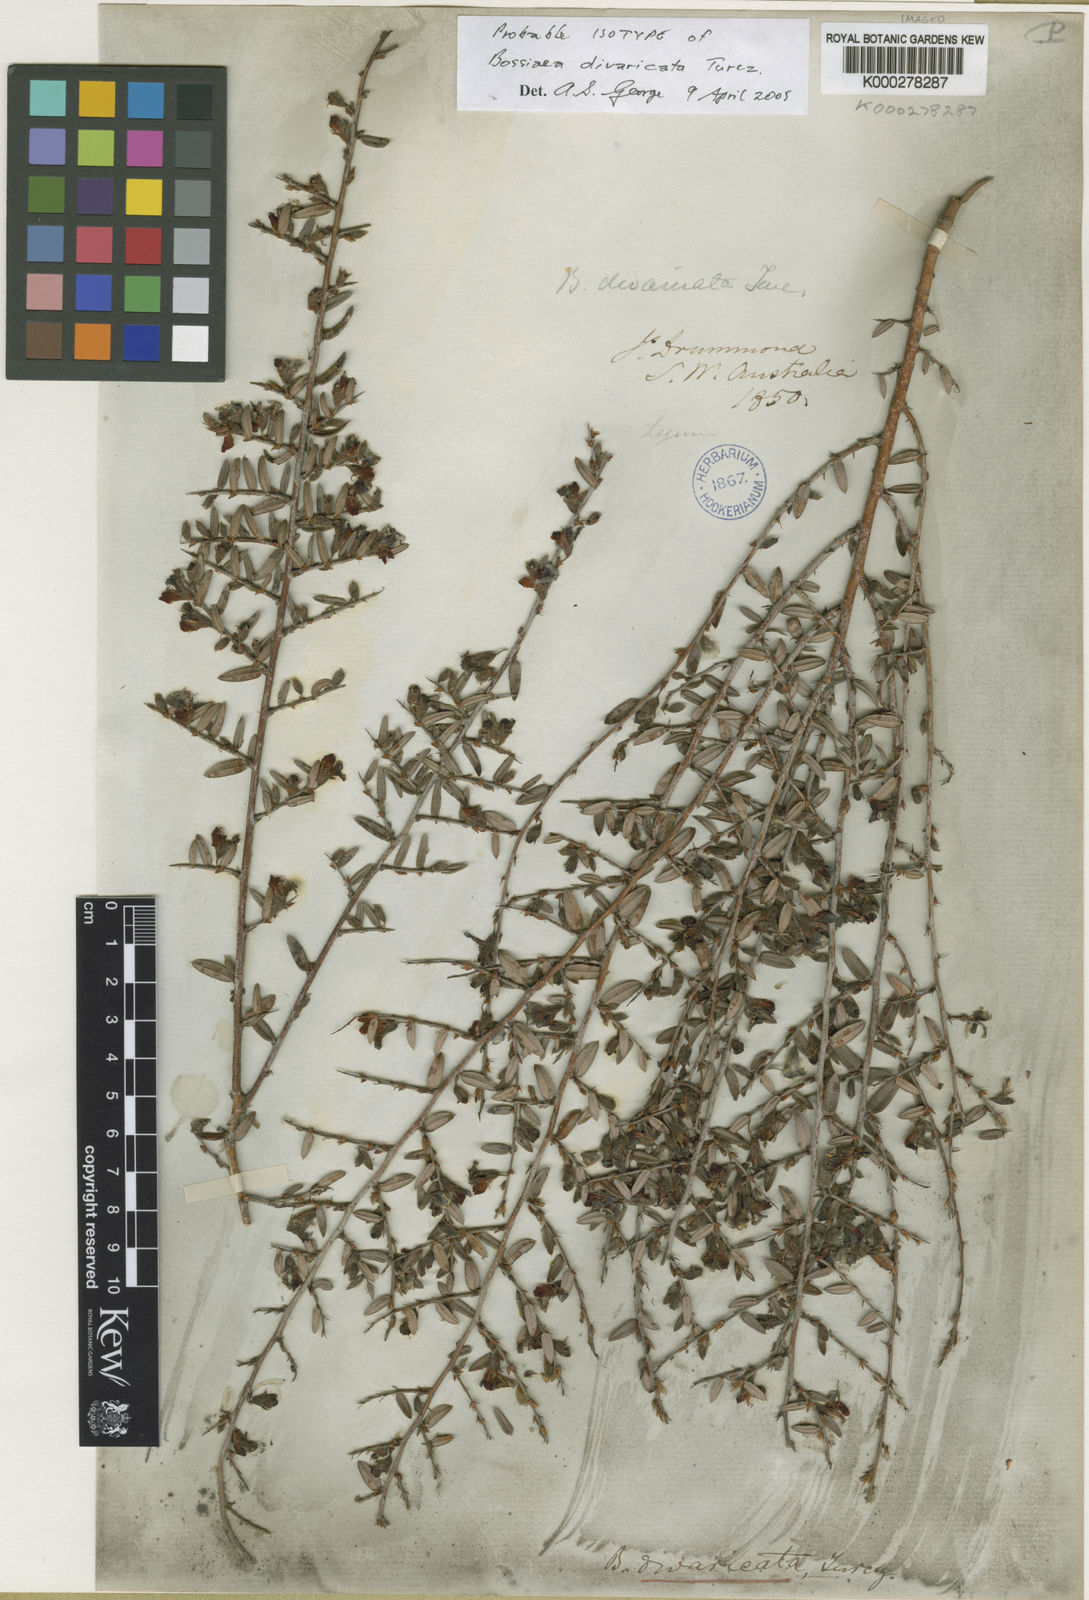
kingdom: Plantae
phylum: Tracheophyta
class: Magnoliopsida
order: Fabales
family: Fabaceae
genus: Bossiaea
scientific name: Bossiaea divaricata
